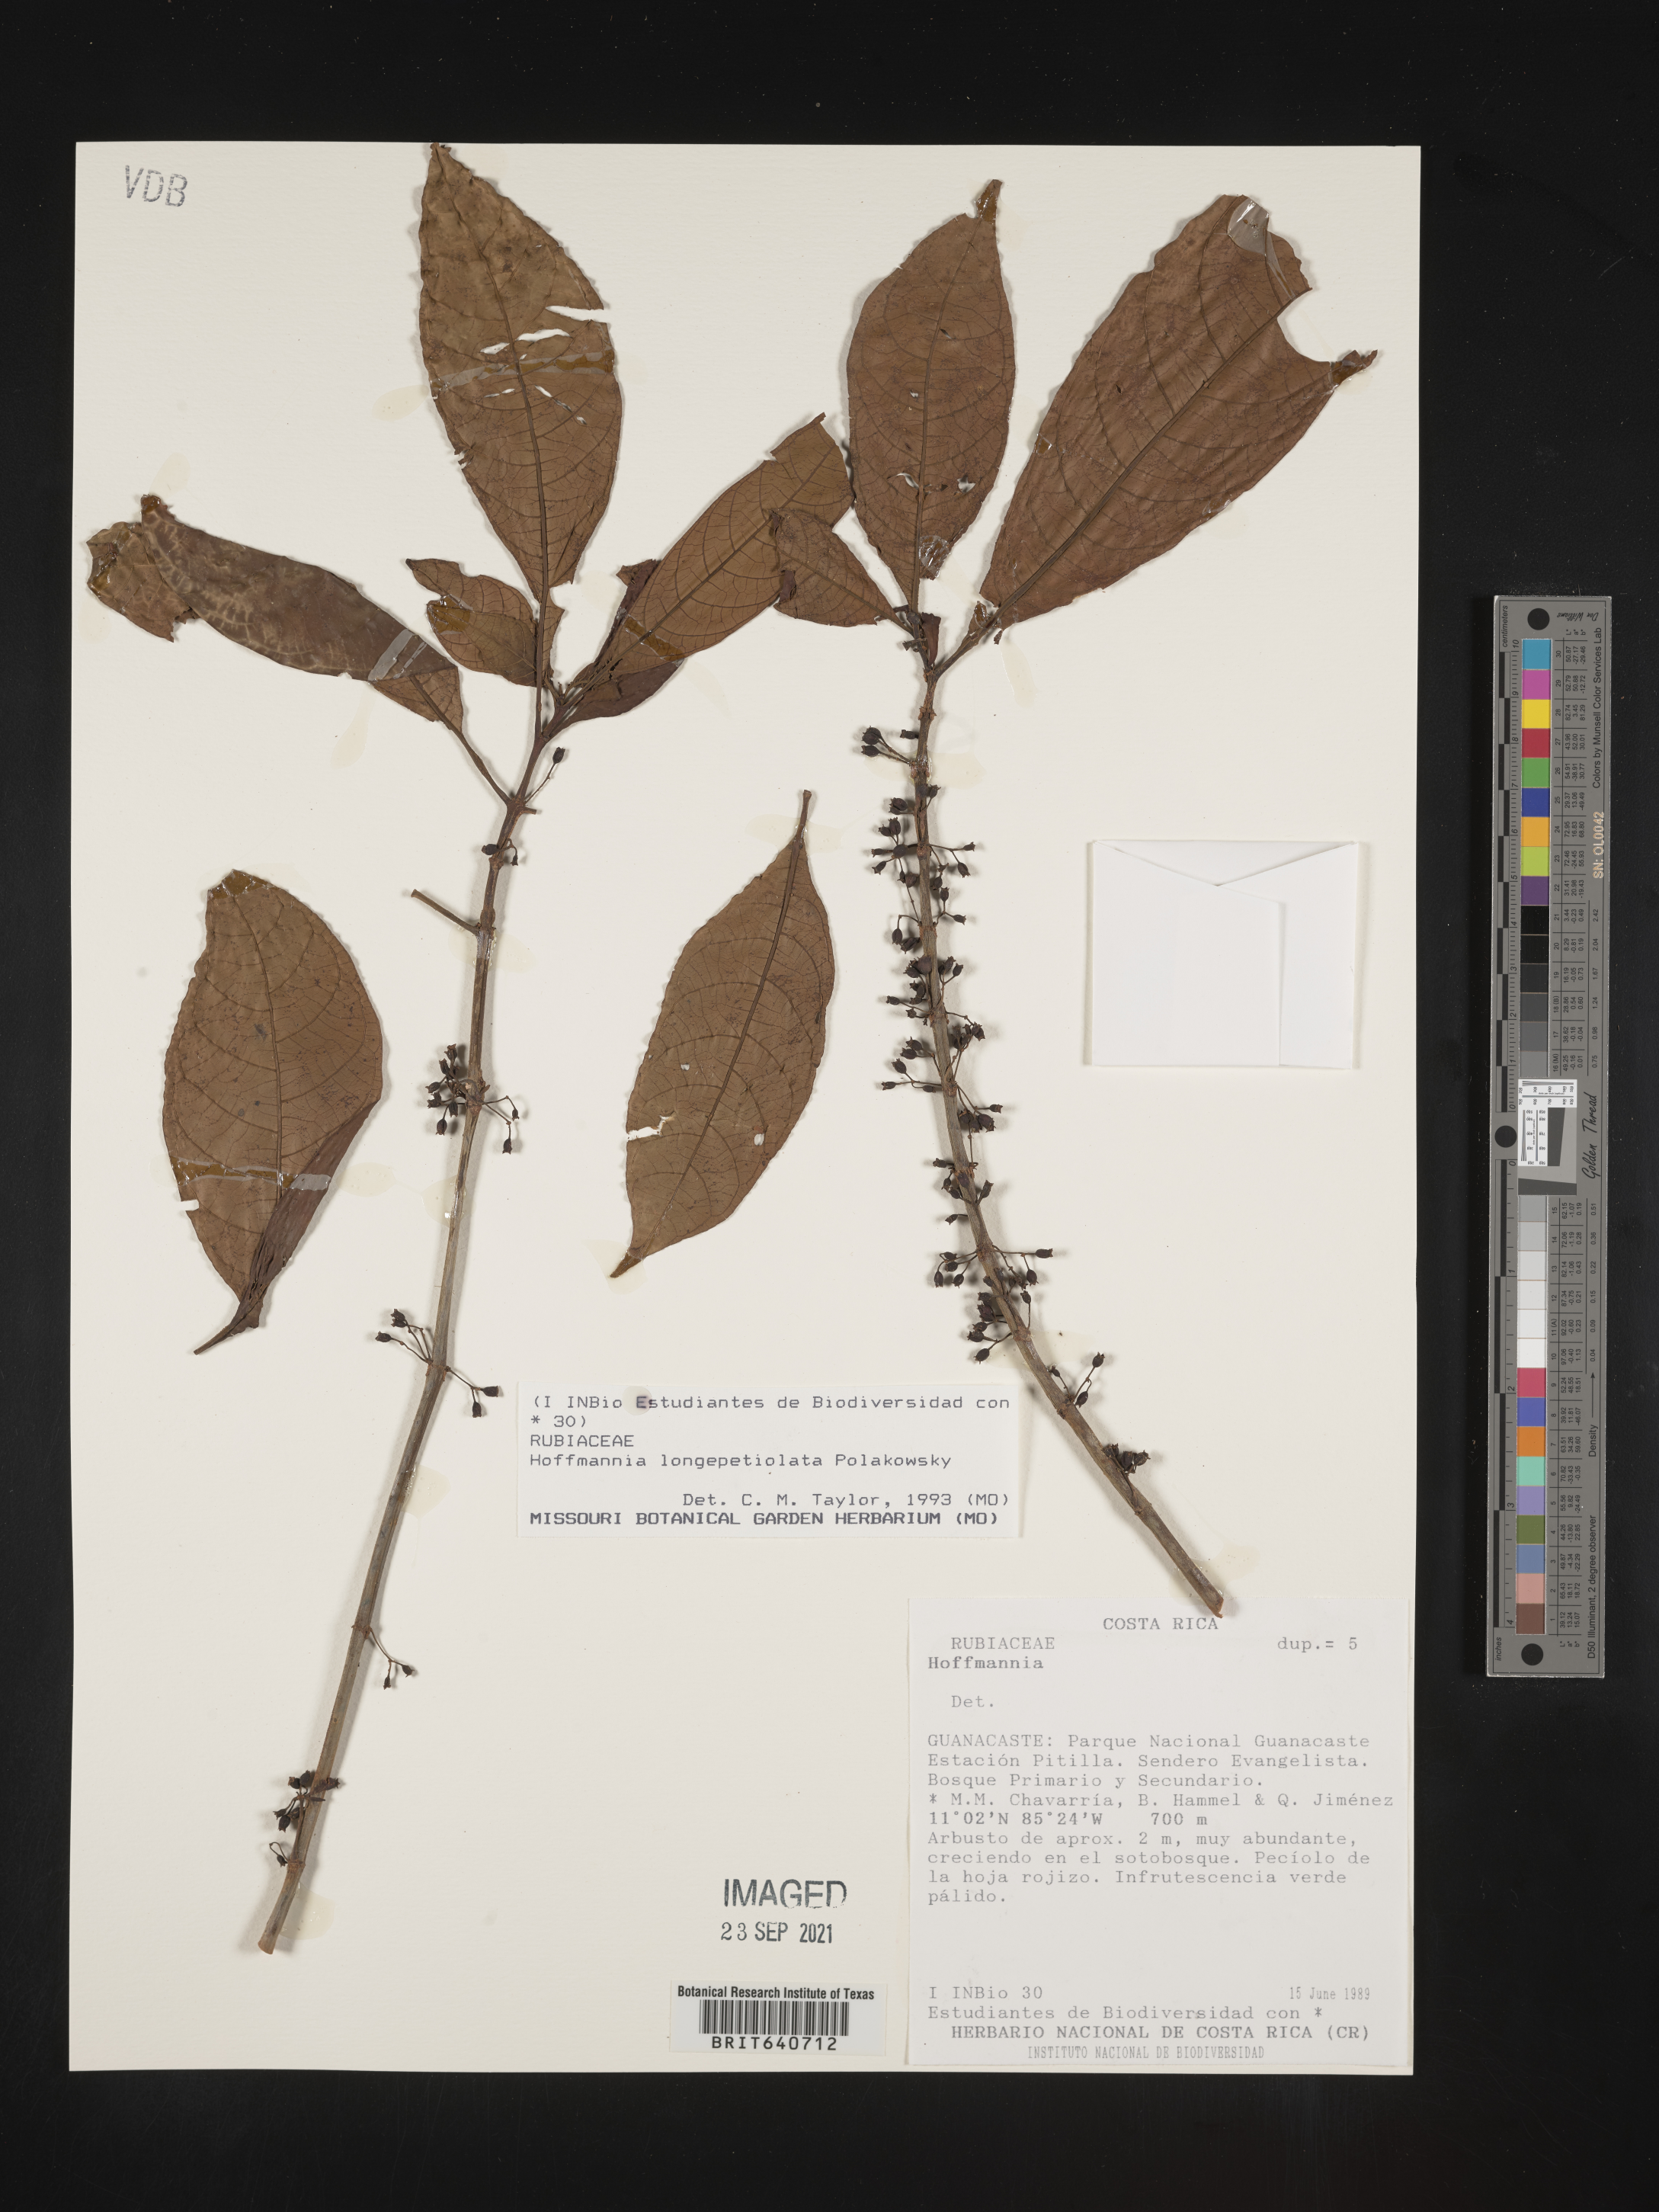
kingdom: Plantae
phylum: Tracheophyta
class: Magnoliopsida
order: Gentianales
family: Rubiaceae
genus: Hoffmannia
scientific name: Hoffmannia
